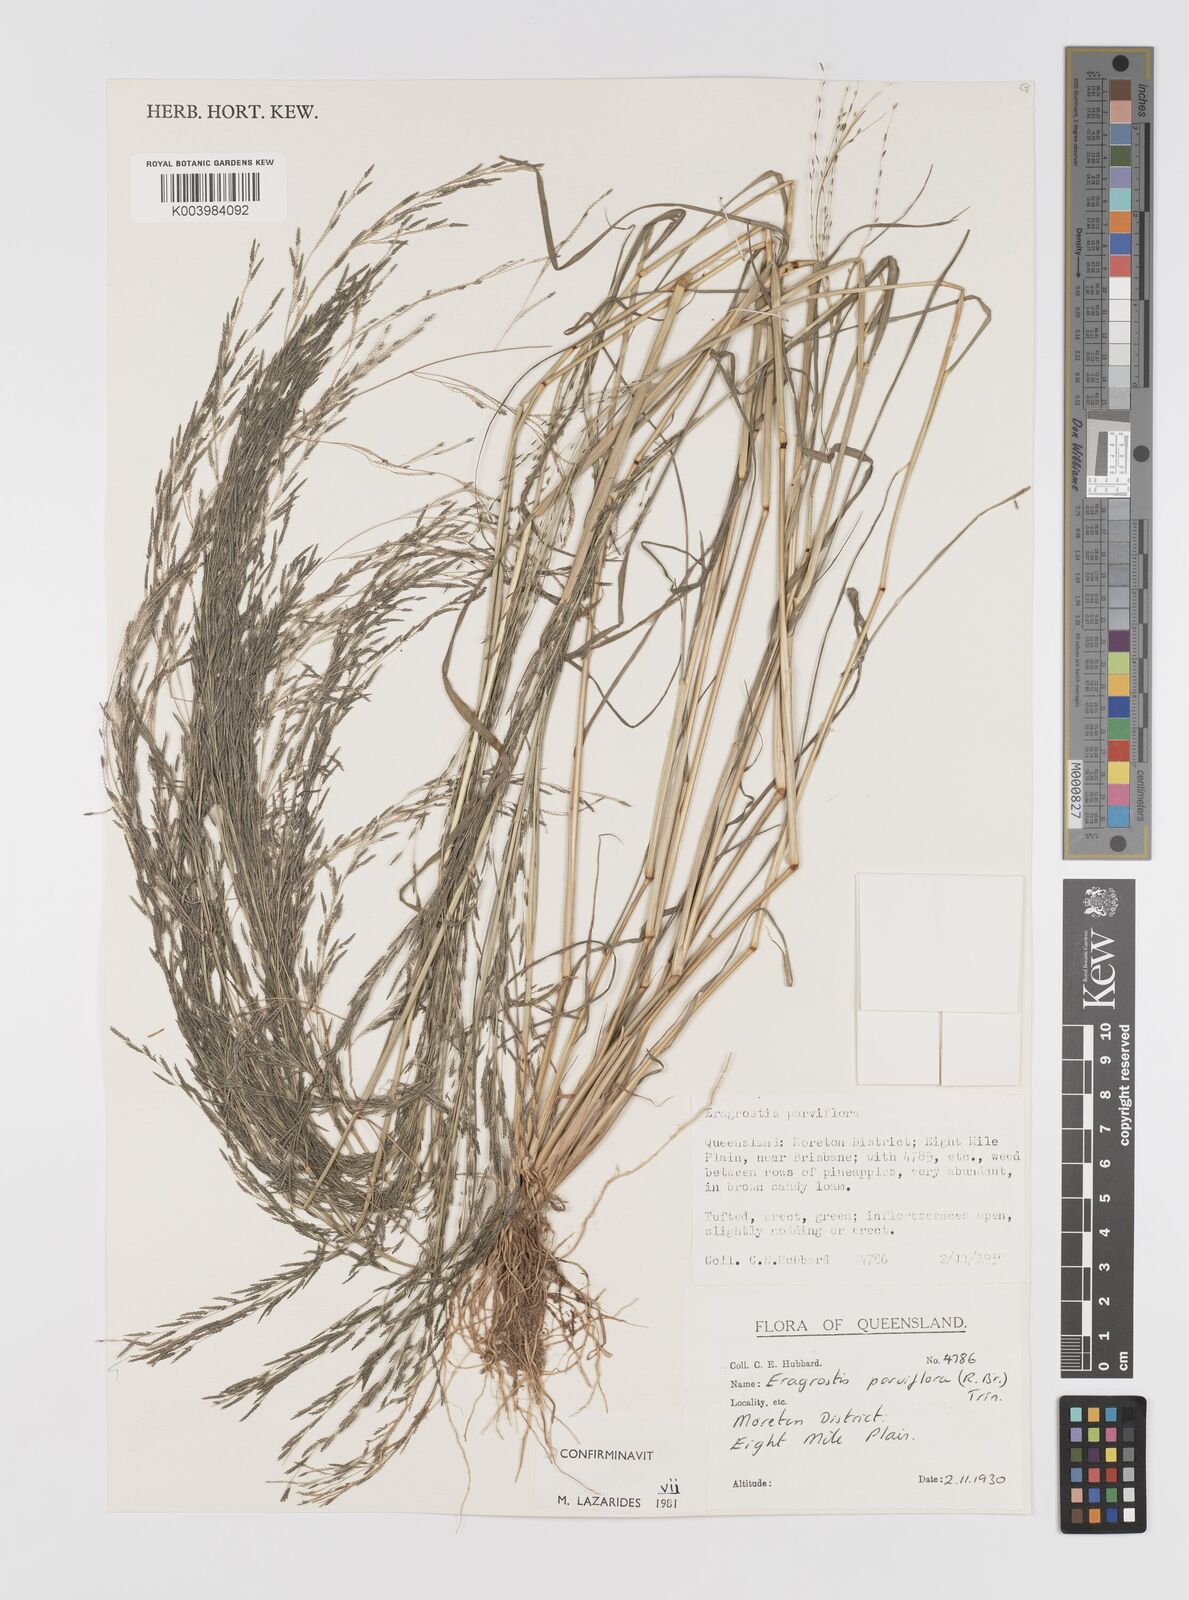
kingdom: Plantae
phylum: Tracheophyta
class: Liliopsida
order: Poales
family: Poaceae
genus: Eragrostis
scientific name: Eragrostis parviflora
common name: Weeping love-grass
